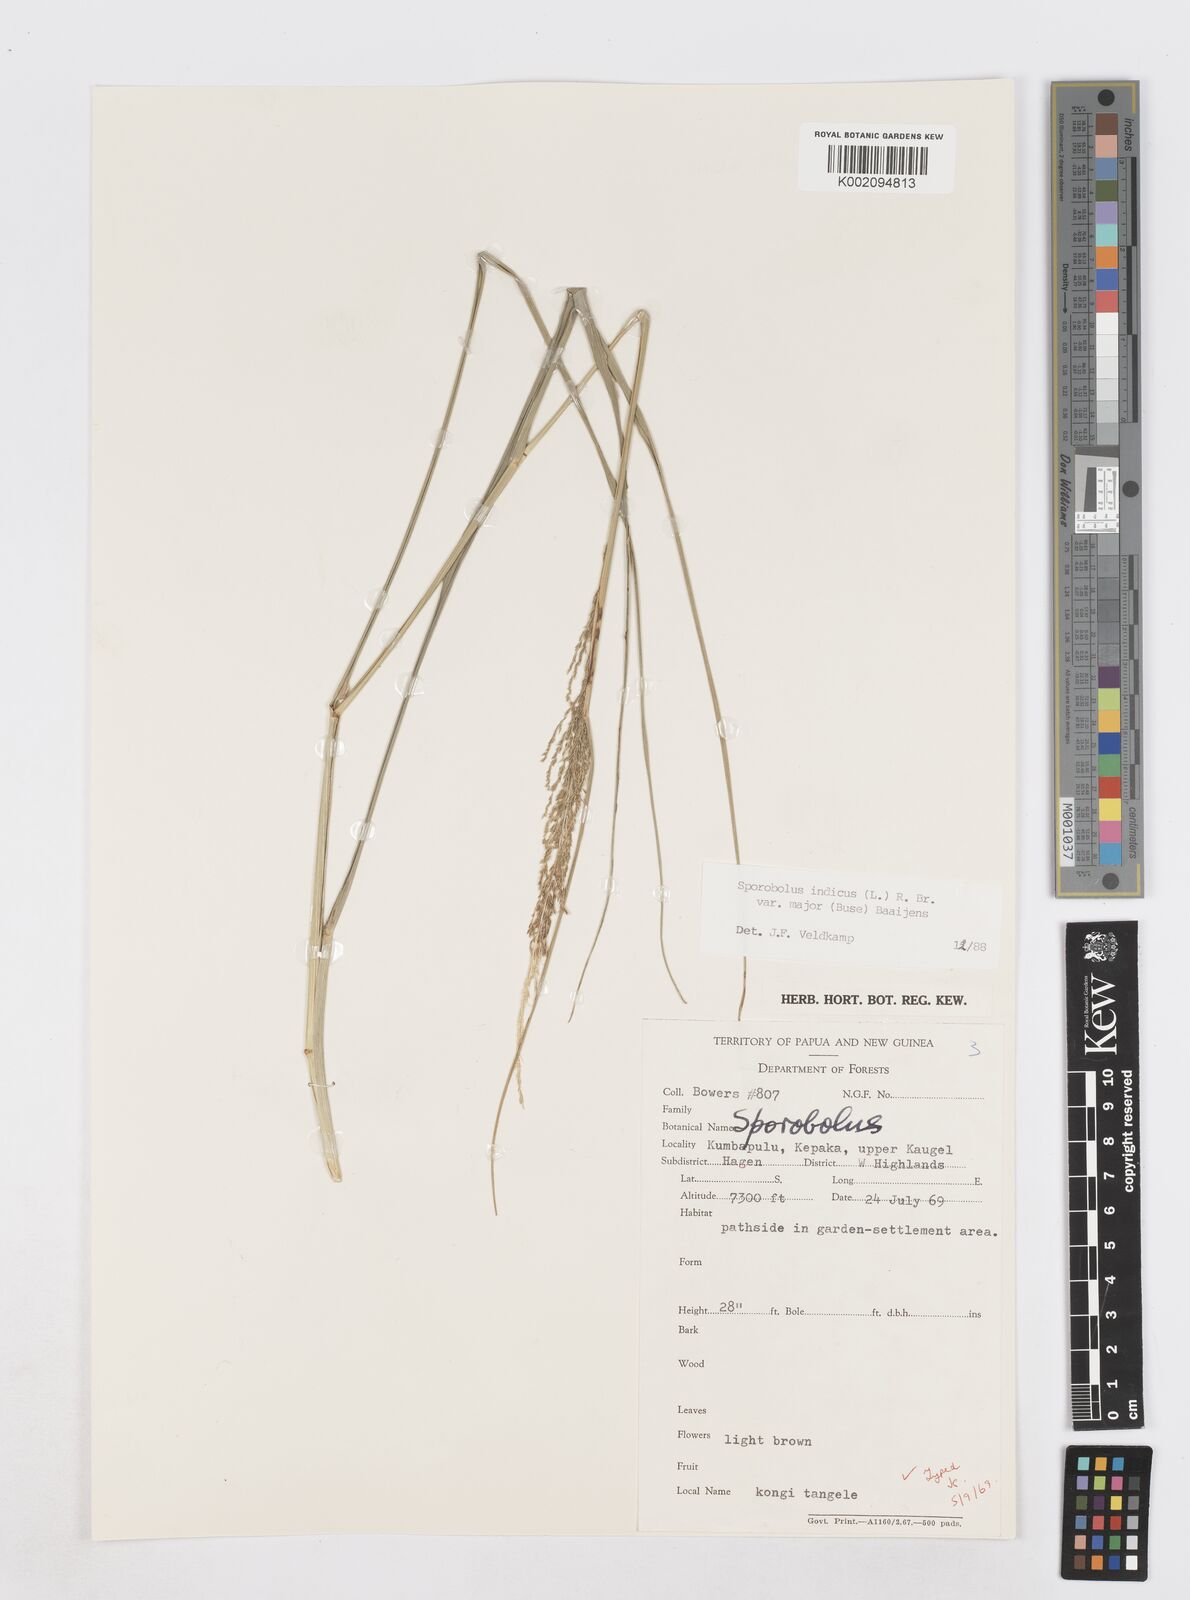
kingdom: Plantae
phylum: Tracheophyta
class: Liliopsida
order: Poales
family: Poaceae
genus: Sporobolus
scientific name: Sporobolus fertilis
